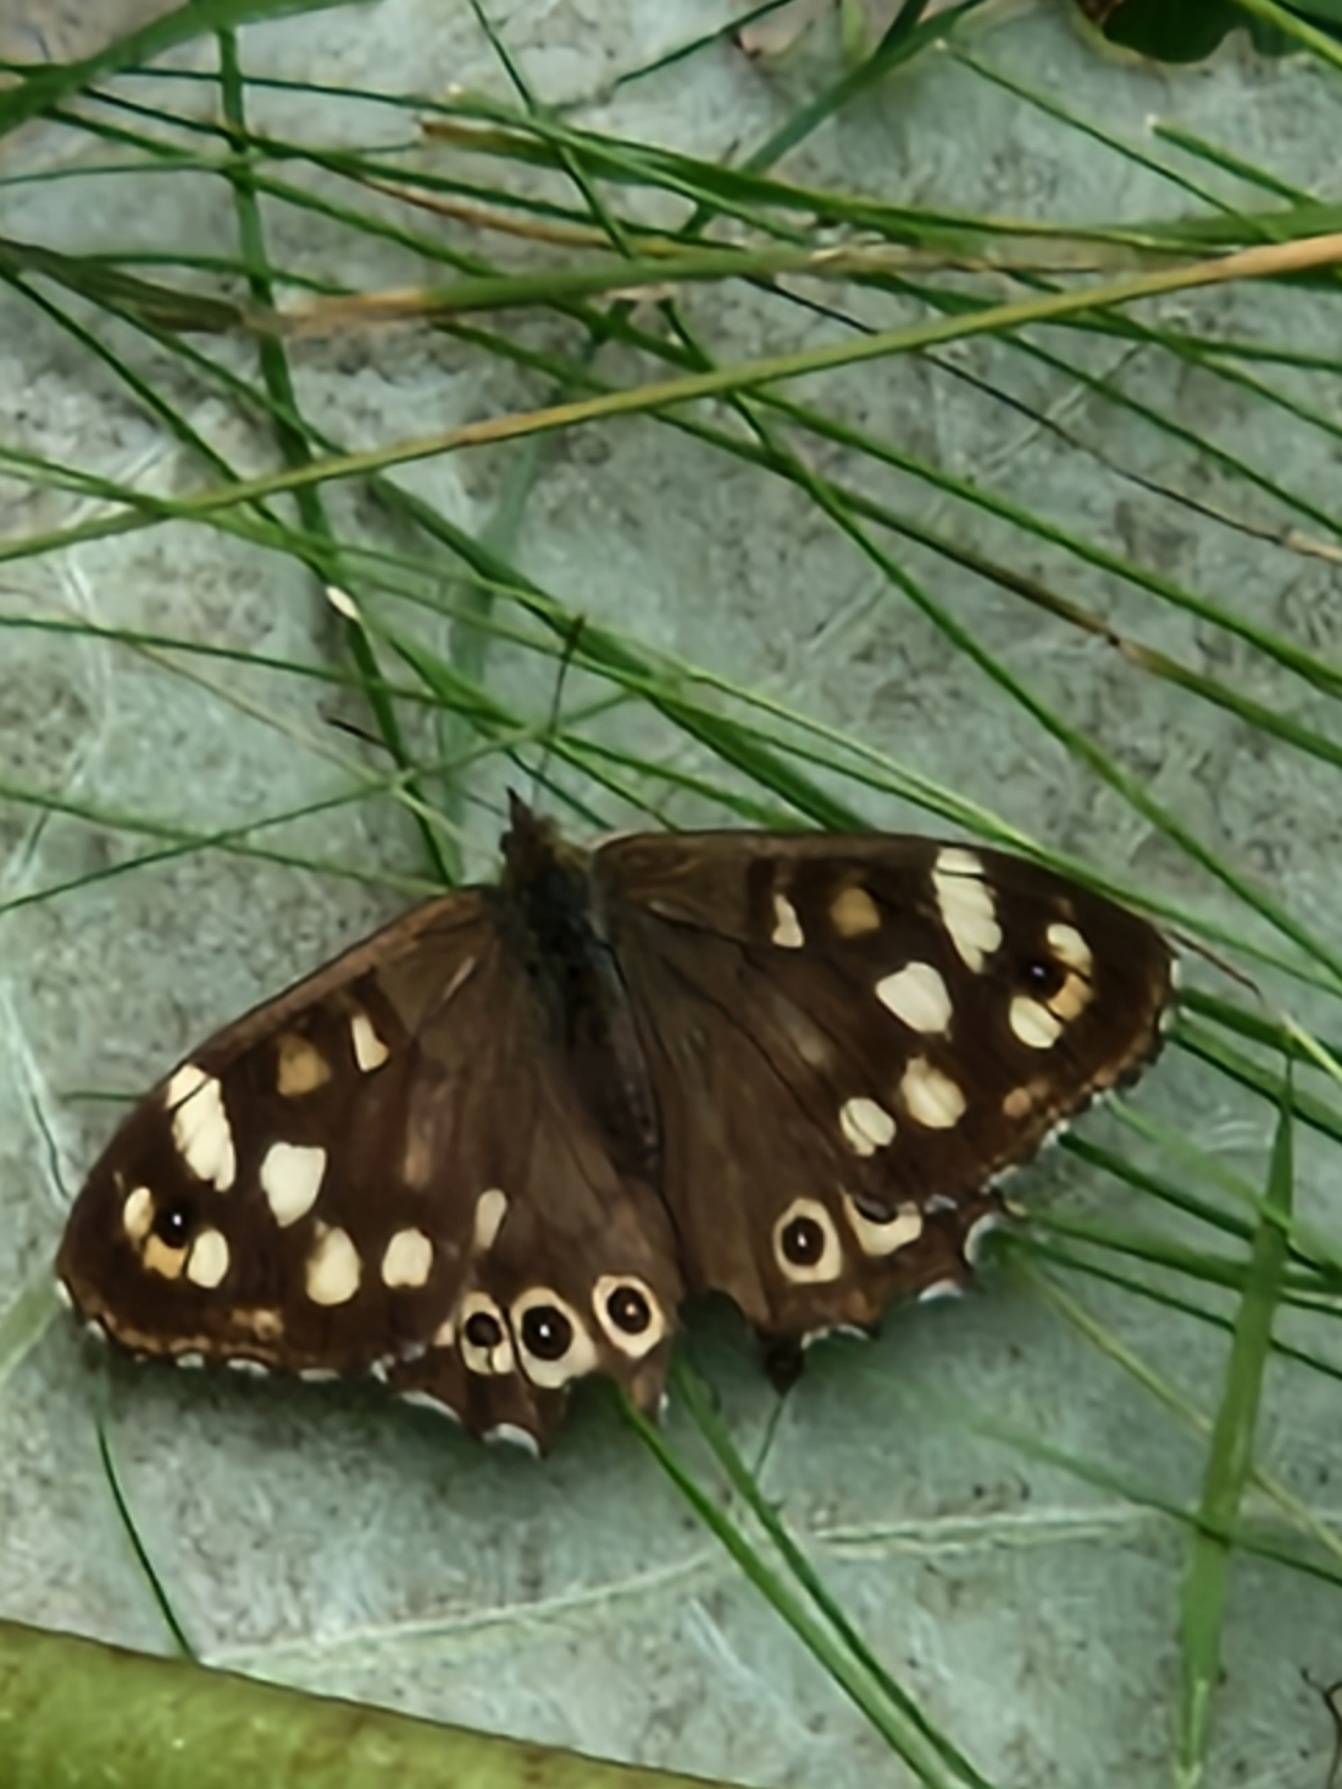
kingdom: Animalia
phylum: Arthropoda
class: Insecta
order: Lepidoptera
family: Nymphalidae
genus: Pararge
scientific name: Pararge aegeria
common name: Skovrandøje
